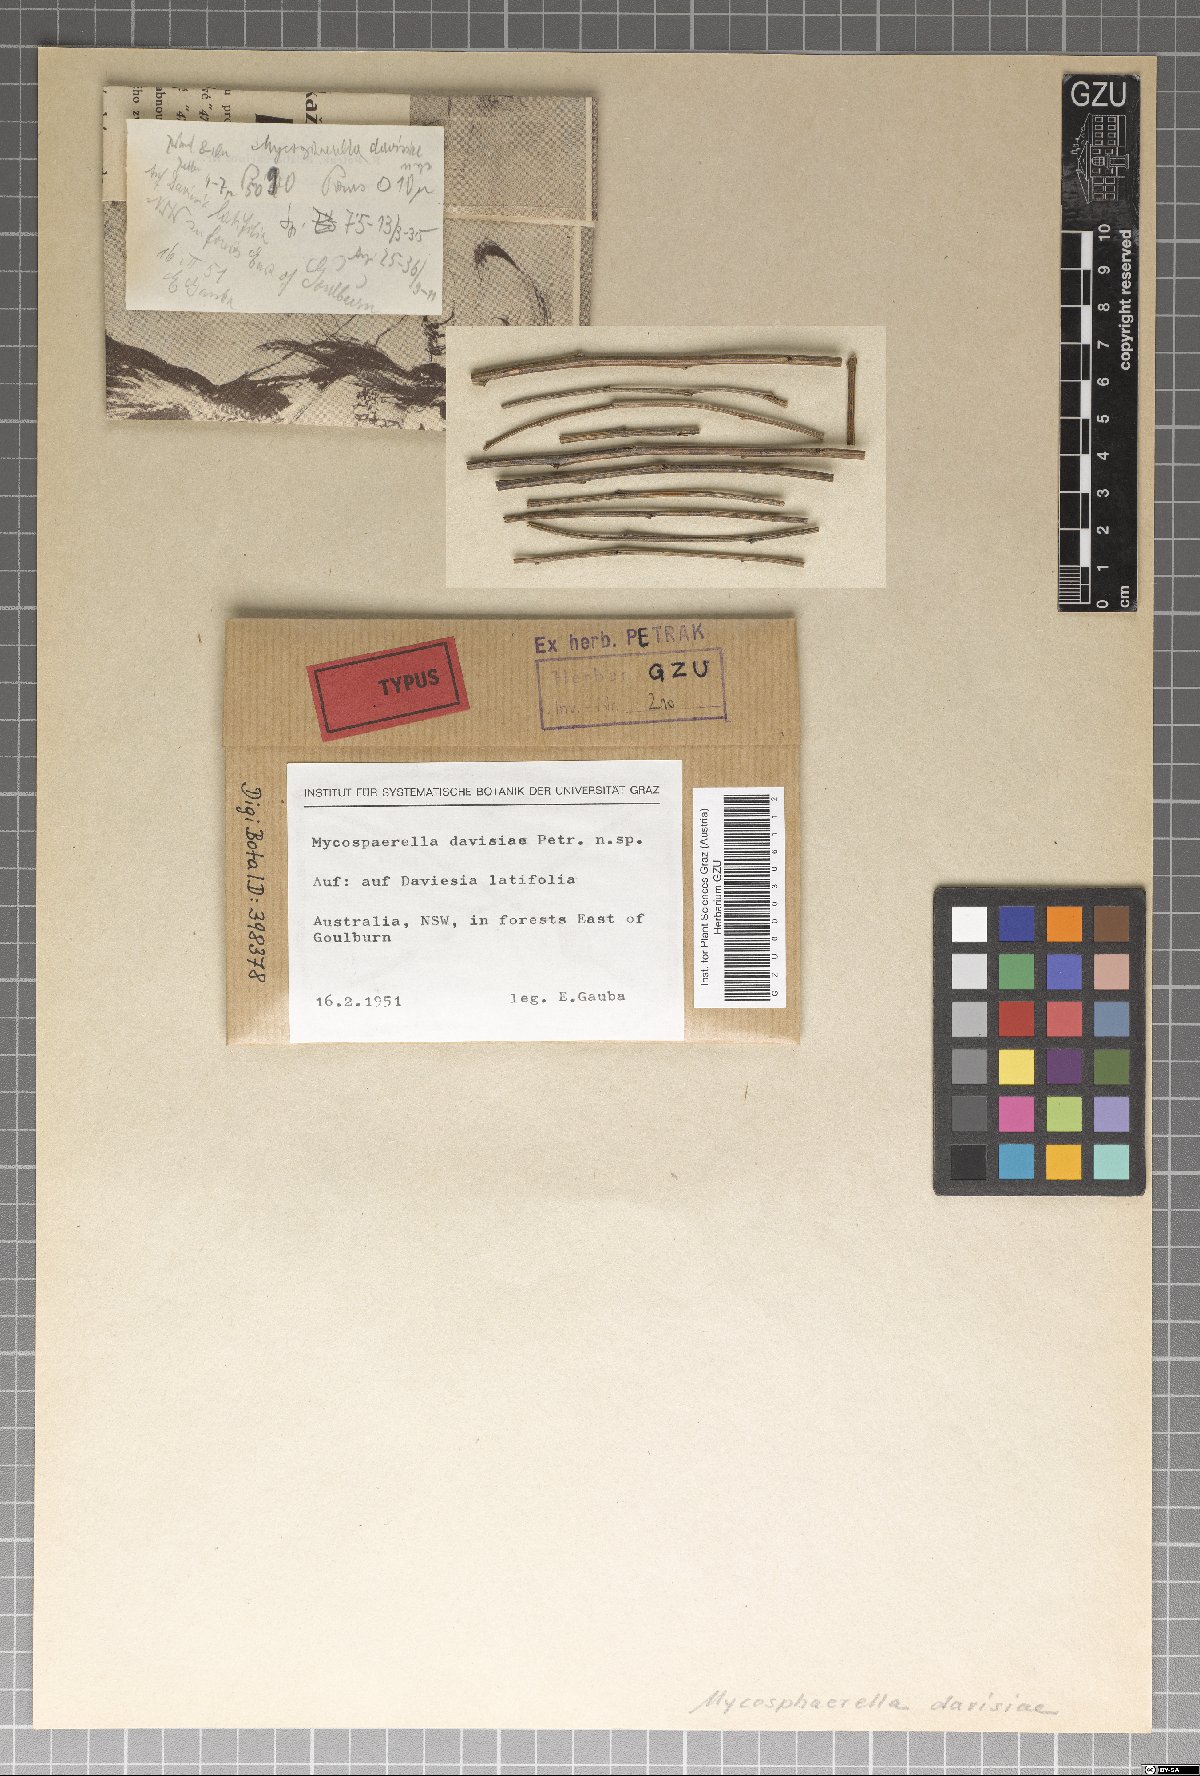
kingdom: Fungi
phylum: Ascomycota
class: Dothideomycetes
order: Mycosphaerellales
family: Mycosphaerellaceae
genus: Mycosphaerella
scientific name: Mycosphaerella daviesiae
